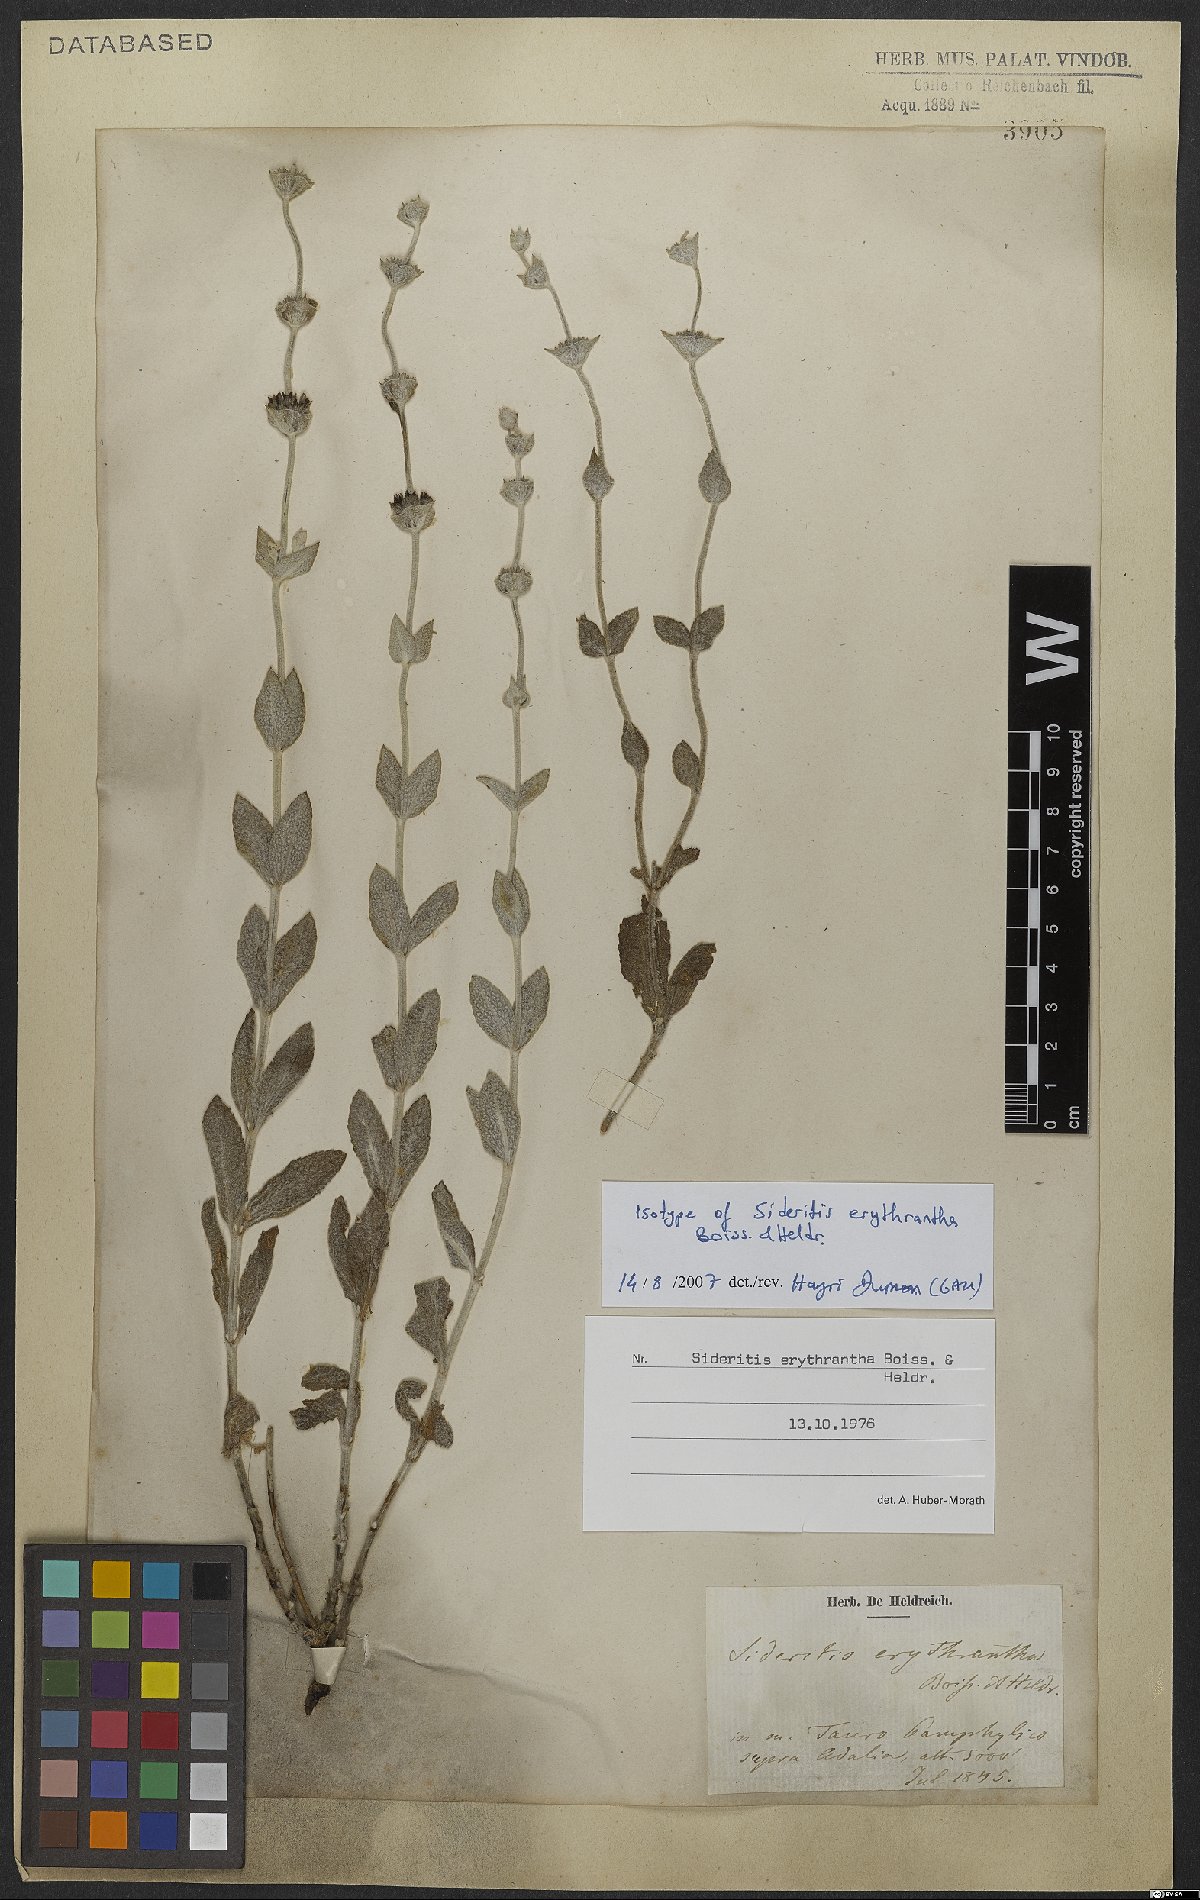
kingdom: Plantae
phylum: Tracheophyta
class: Magnoliopsida
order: Lamiales
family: Lamiaceae
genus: Sideritis
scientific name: Sideritis erythrantha
